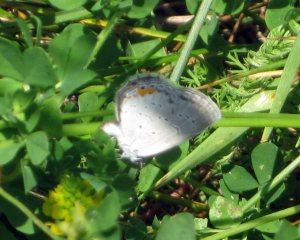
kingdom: Animalia
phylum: Arthropoda
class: Insecta
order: Lepidoptera
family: Lycaenidae
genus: Elkalyce
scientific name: Elkalyce comyntas
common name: Eastern Tailed-Blue
